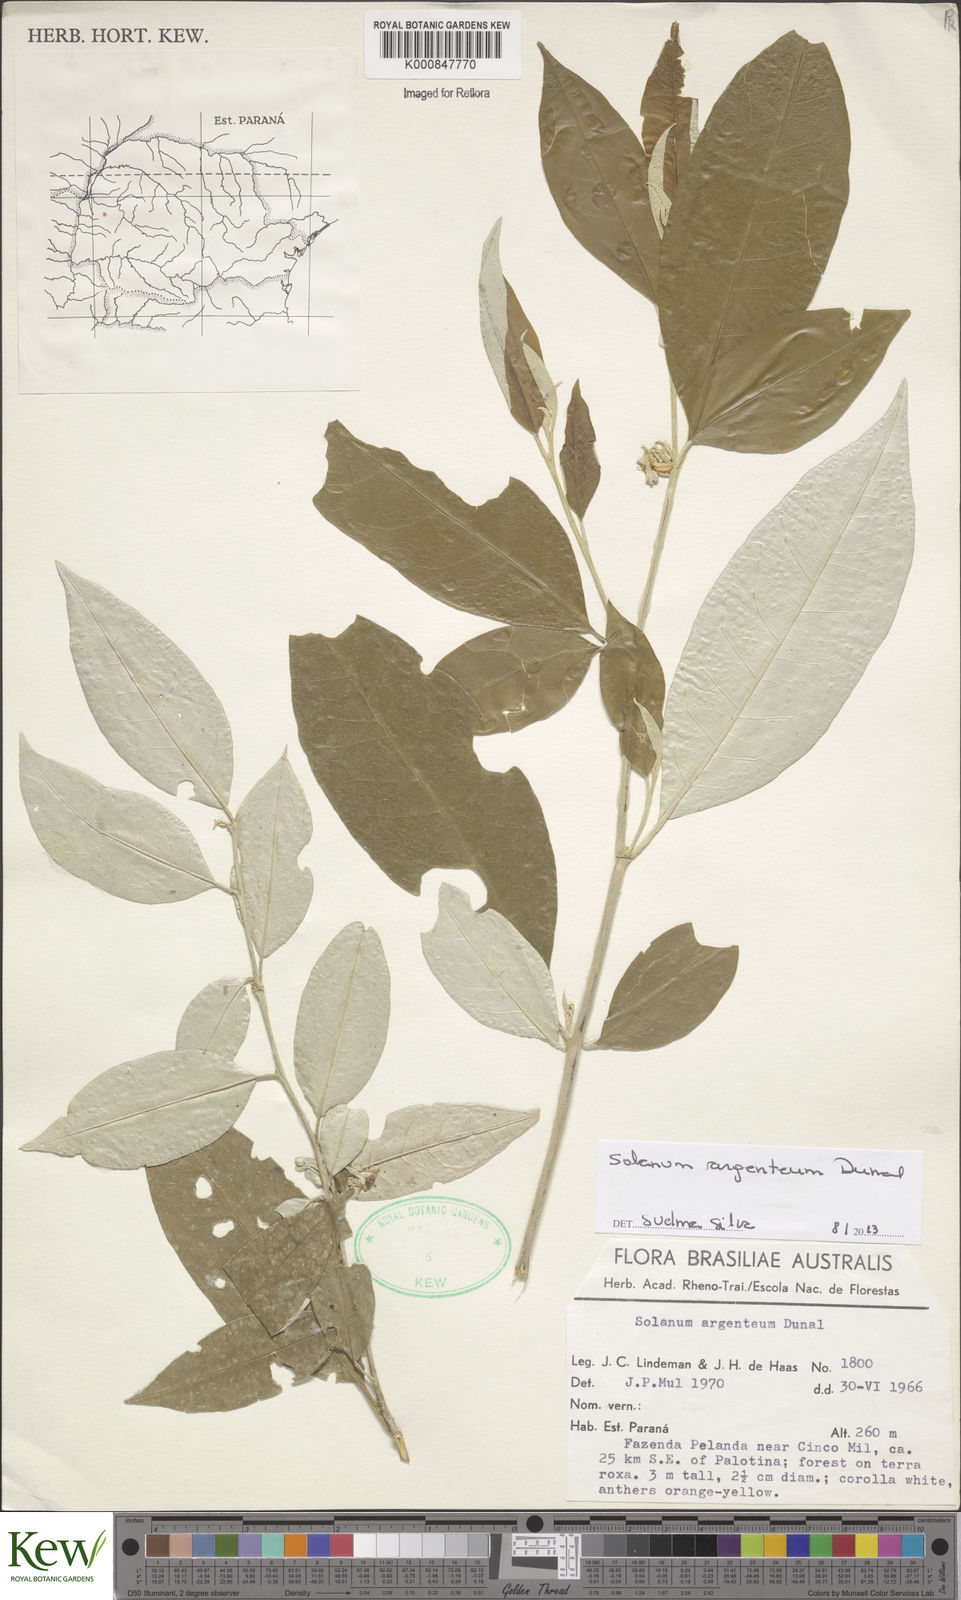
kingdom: Plantae
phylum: Tracheophyta
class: Magnoliopsida
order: Solanales
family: Solanaceae
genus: Solanum
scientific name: Solanum swartzianum
